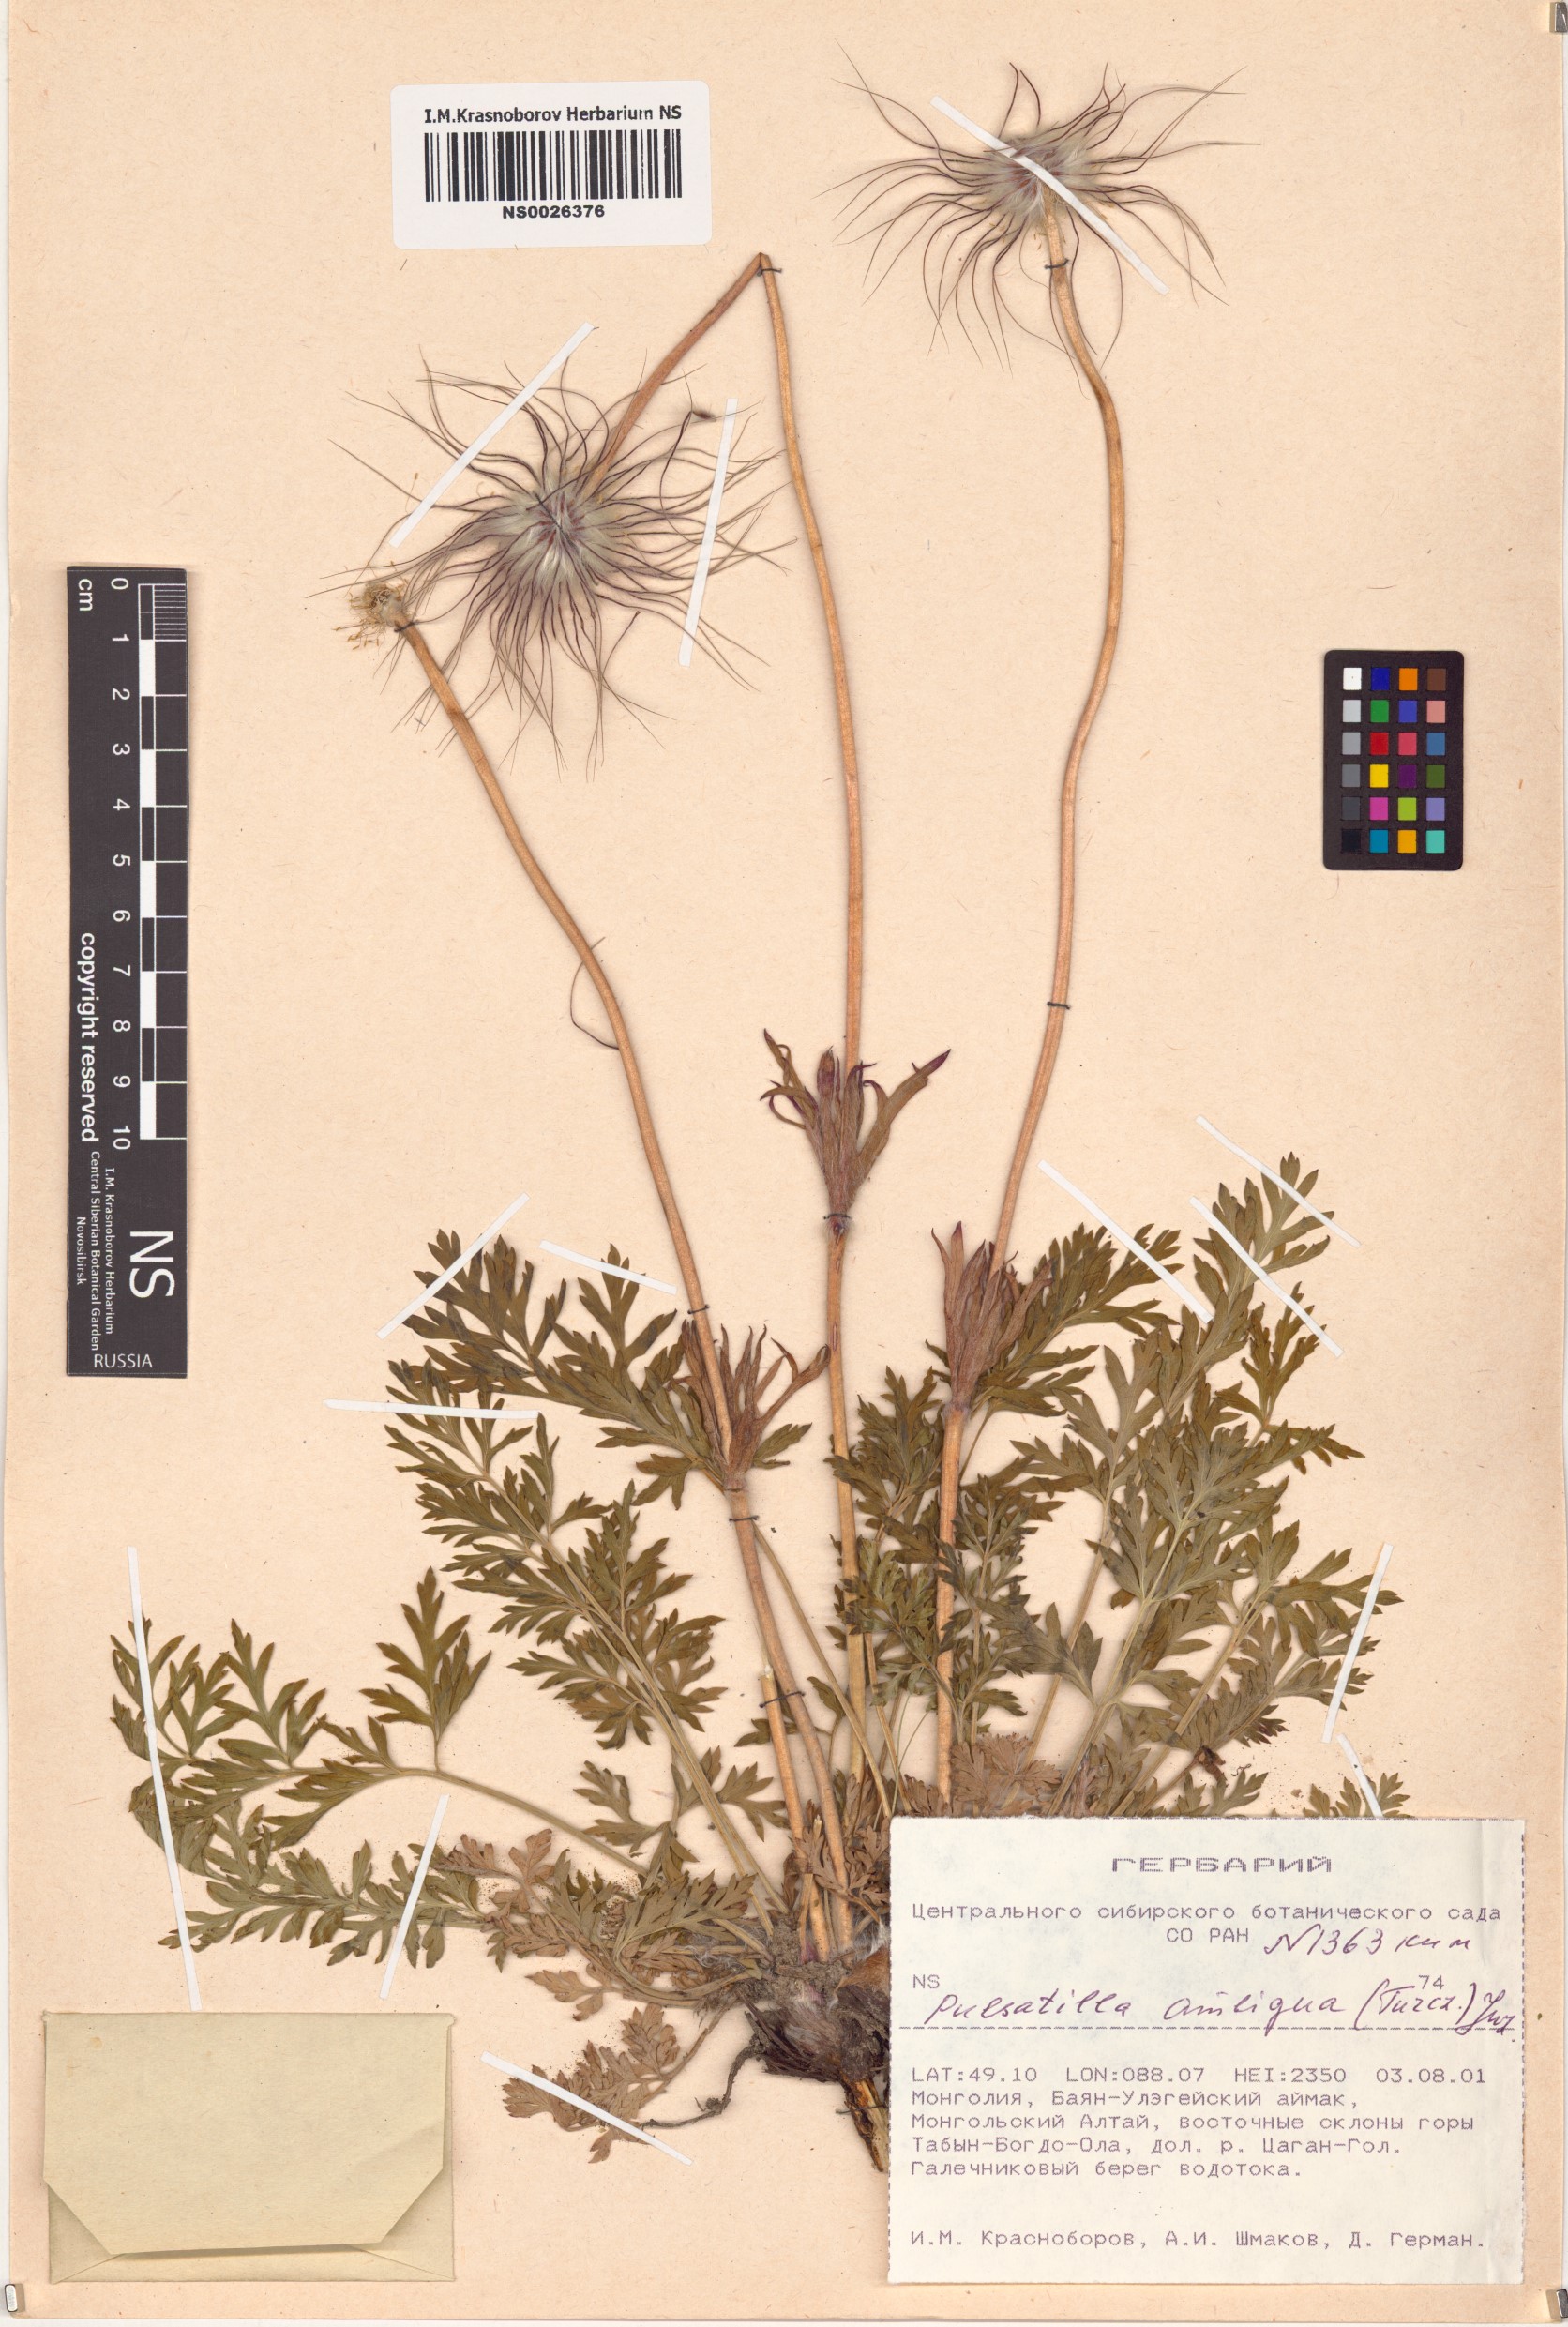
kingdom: Plantae
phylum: Tracheophyta
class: Magnoliopsida
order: Ranunculales
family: Ranunculaceae
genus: Pulsatilla
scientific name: Pulsatilla ambigua
